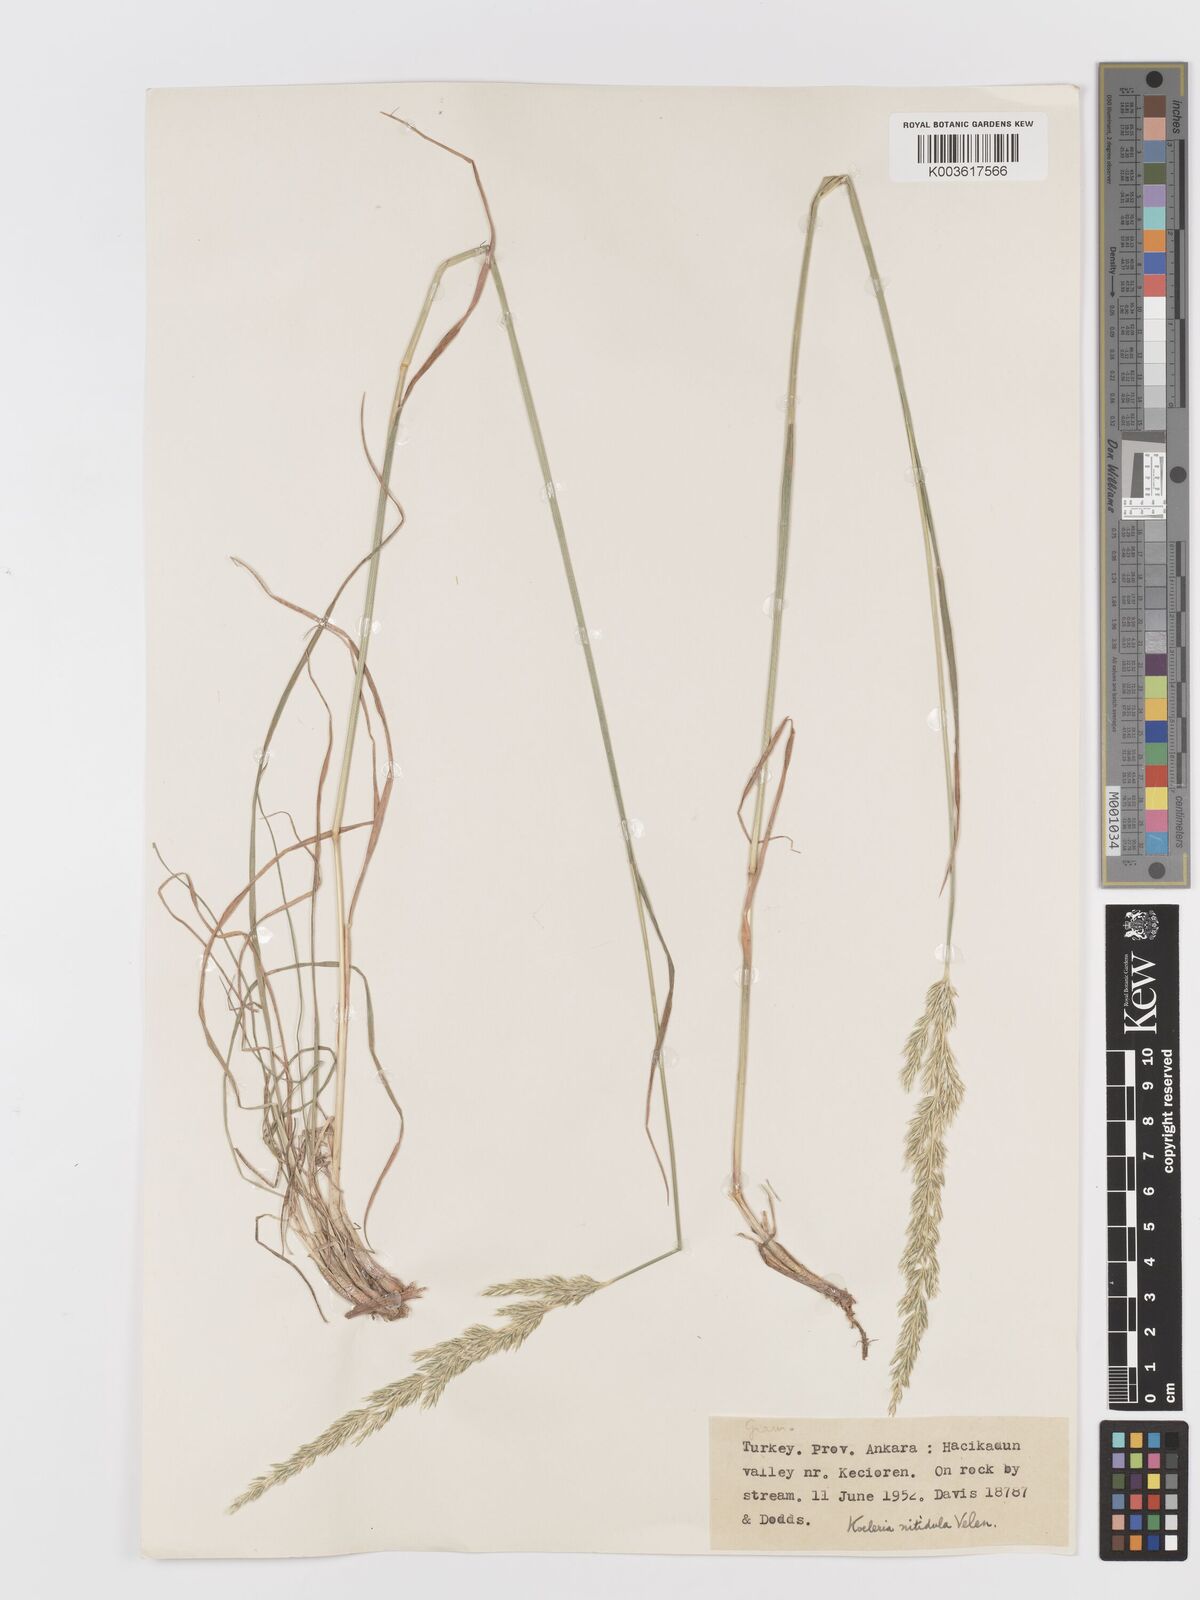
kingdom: Plantae
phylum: Tracheophyta
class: Liliopsida
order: Poales
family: Poaceae
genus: Koeleria
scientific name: Koeleria nitidula
